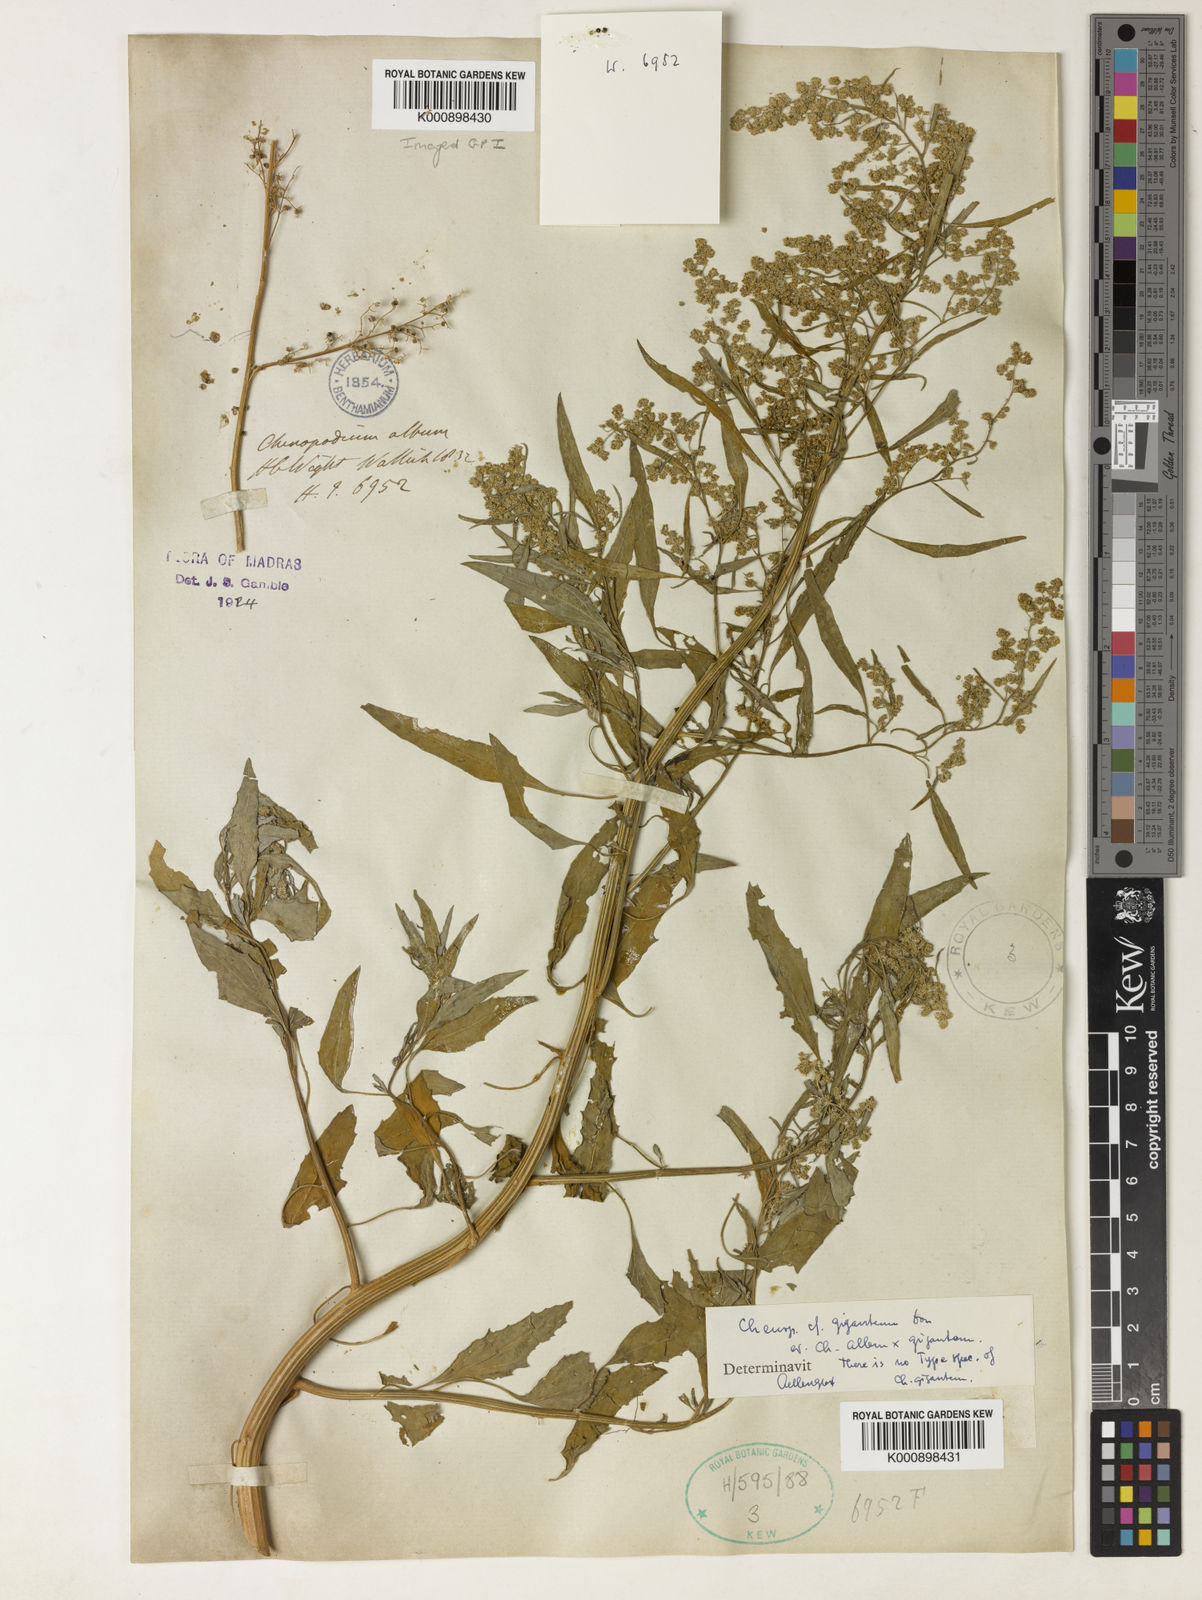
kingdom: Plantae
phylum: Tracheophyta
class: Magnoliopsida
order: Caryophyllales
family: Amaranthaceae
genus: Chenopodium
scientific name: Chenopodium giganteum
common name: Magentaspreen
